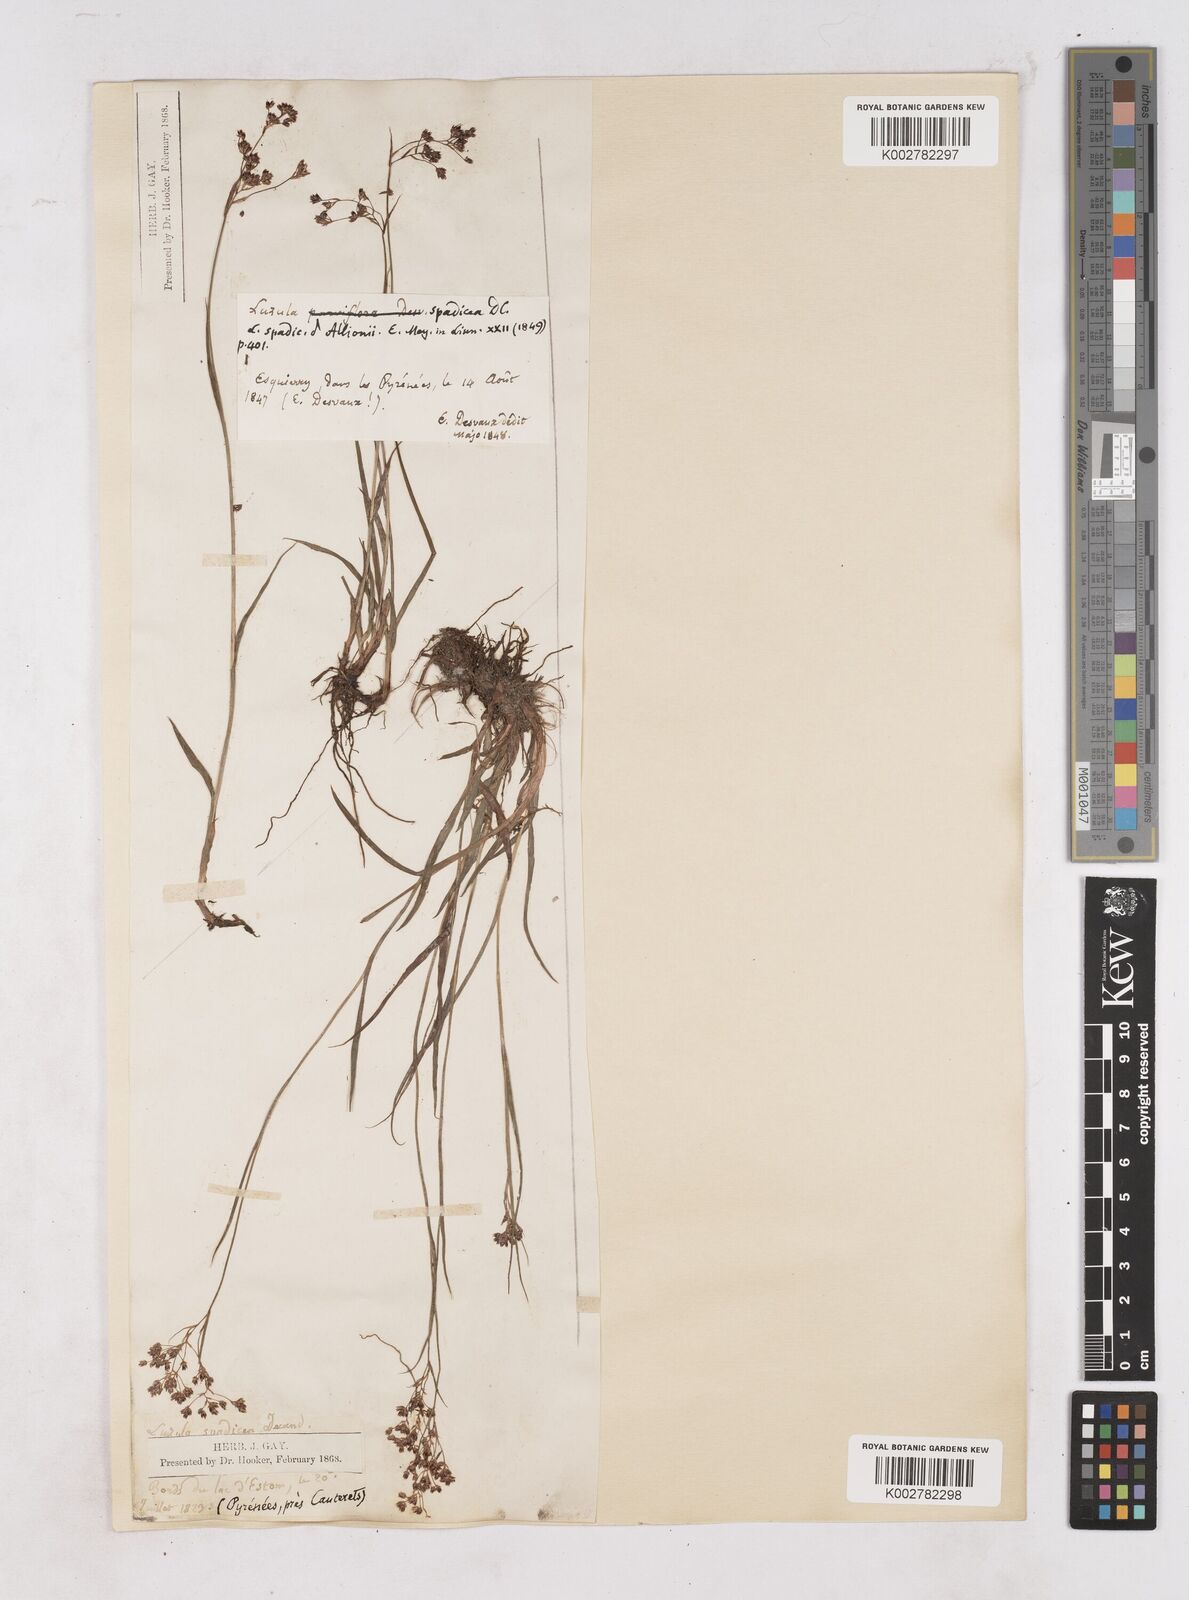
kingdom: Plantae
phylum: Tracheophyta
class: Liliopsida
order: Poales
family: Juncaceae
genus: Luzula
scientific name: Luzula alpinopilosa
